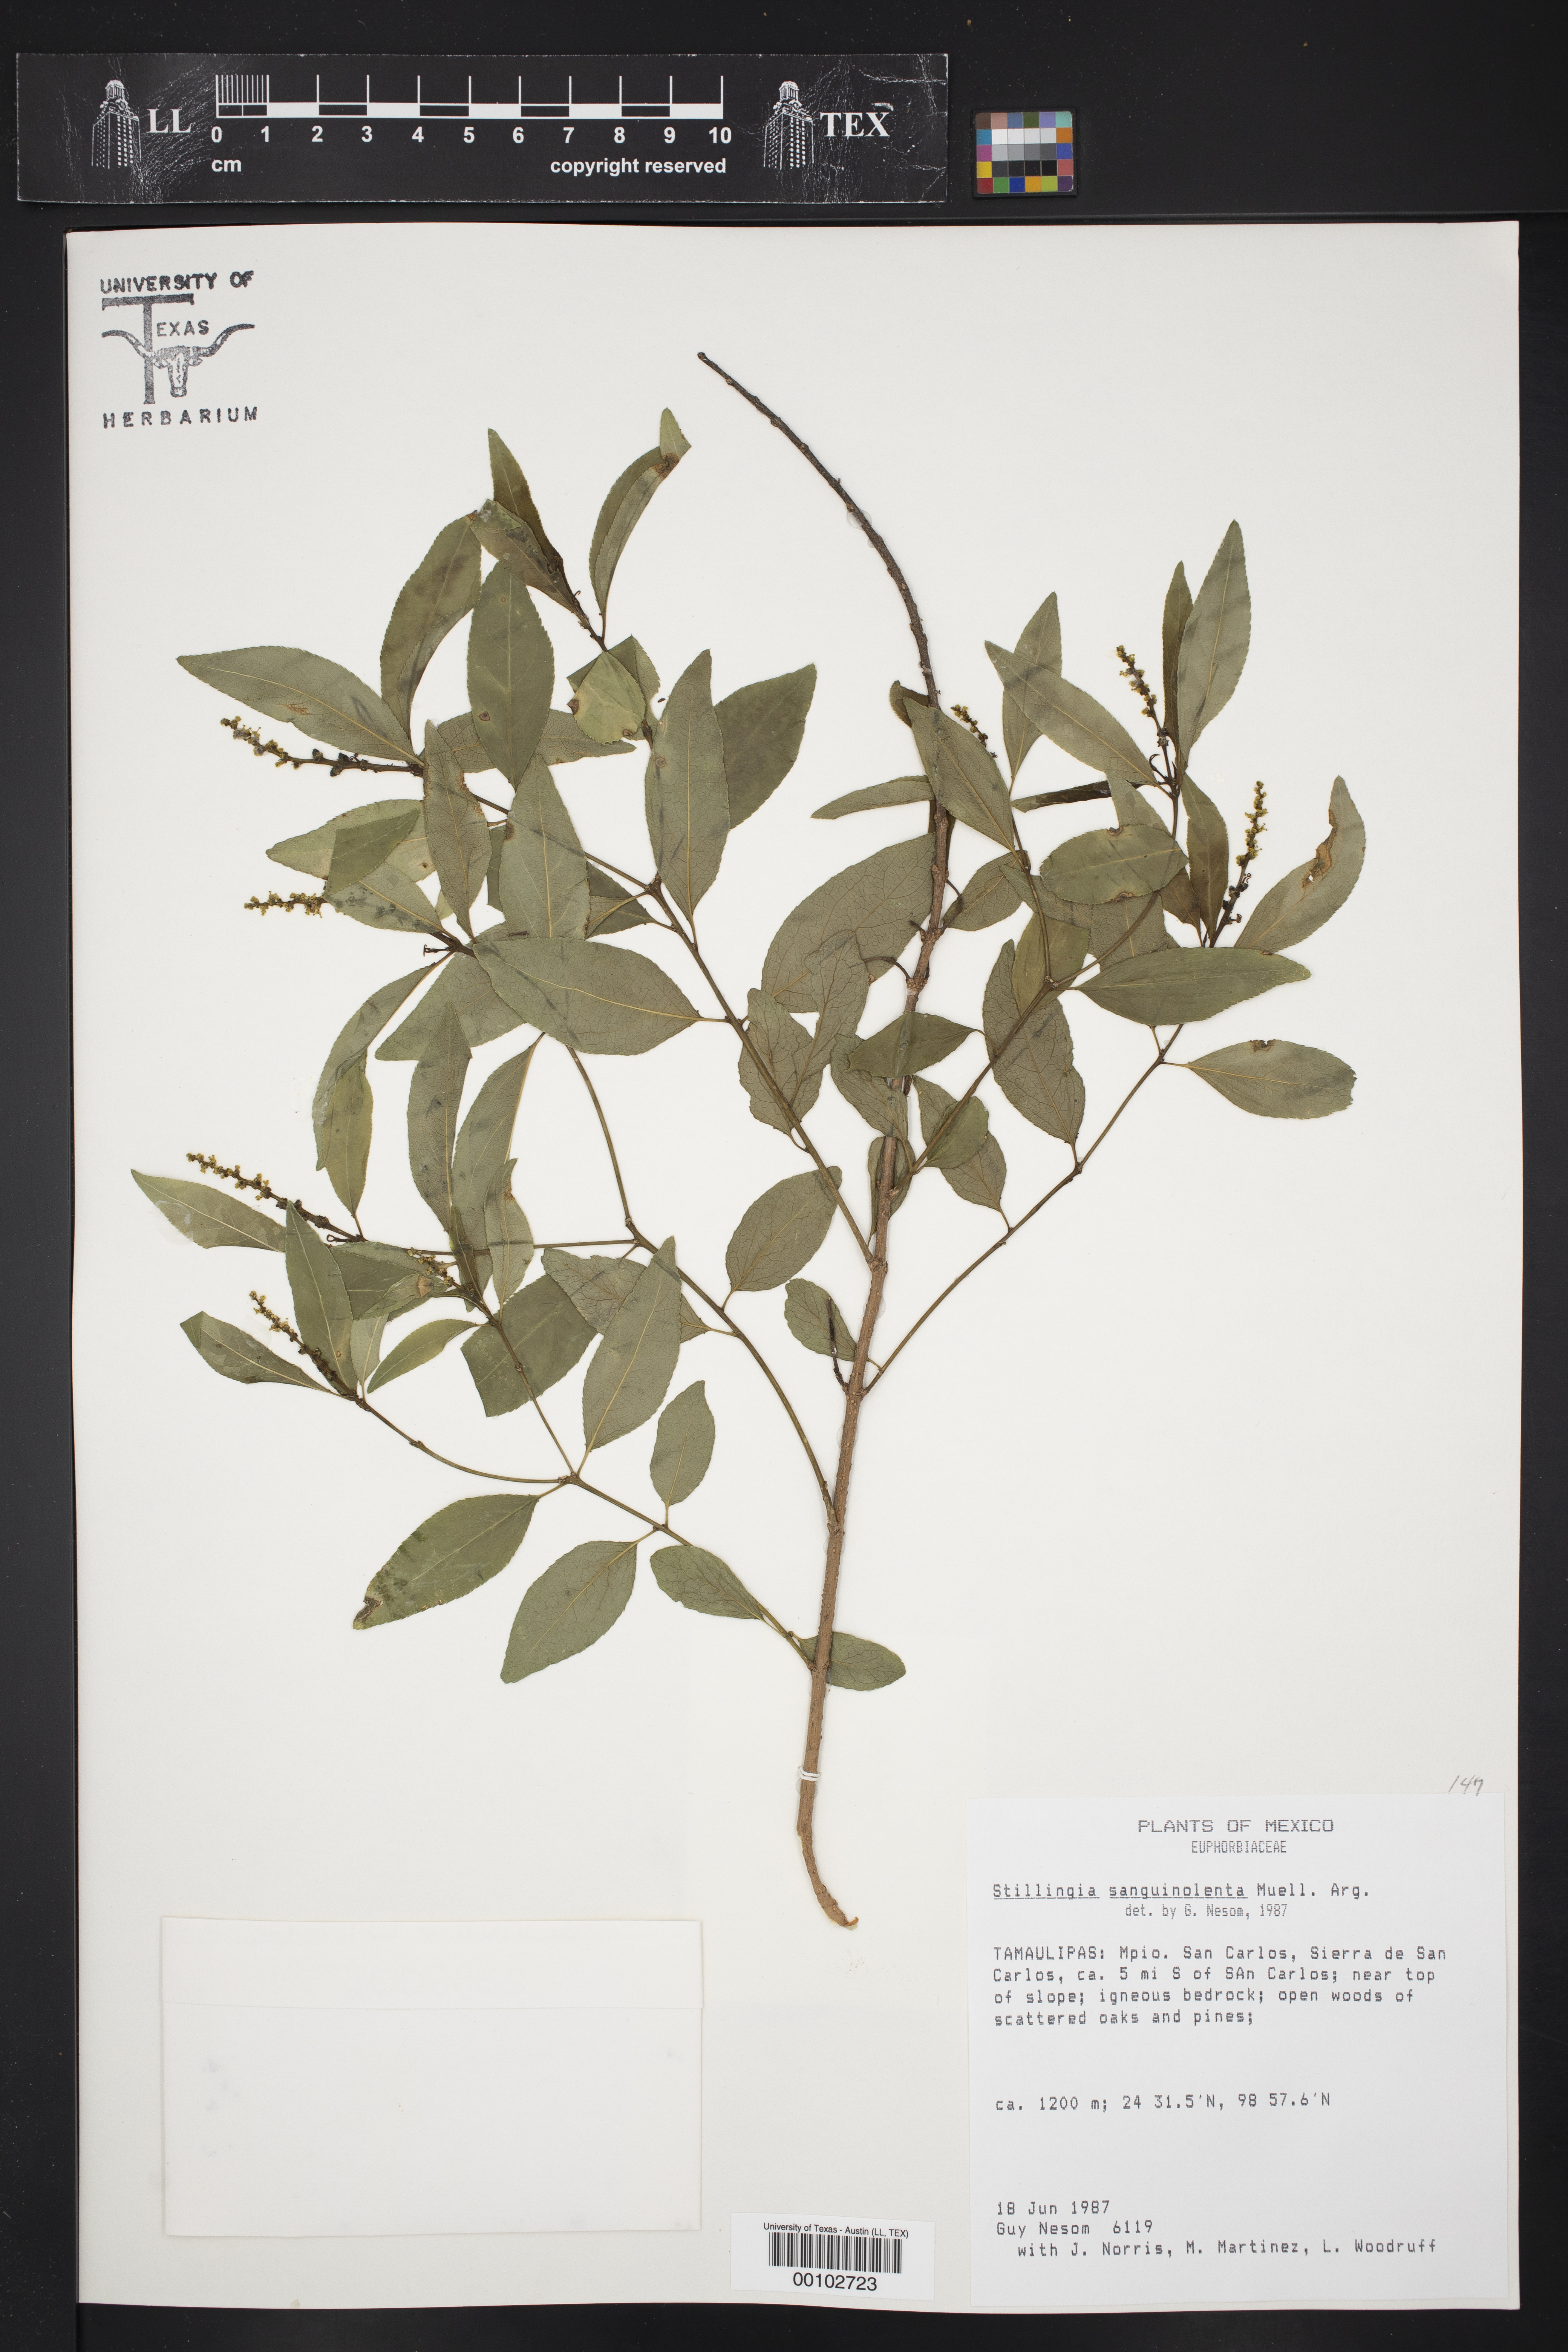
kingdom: Plantae
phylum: Tracheophyta
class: Magnoliopsida
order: Malpighiales
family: Euphorbiaceae
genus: Stillingia
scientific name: Stillingia sanguinolenta
